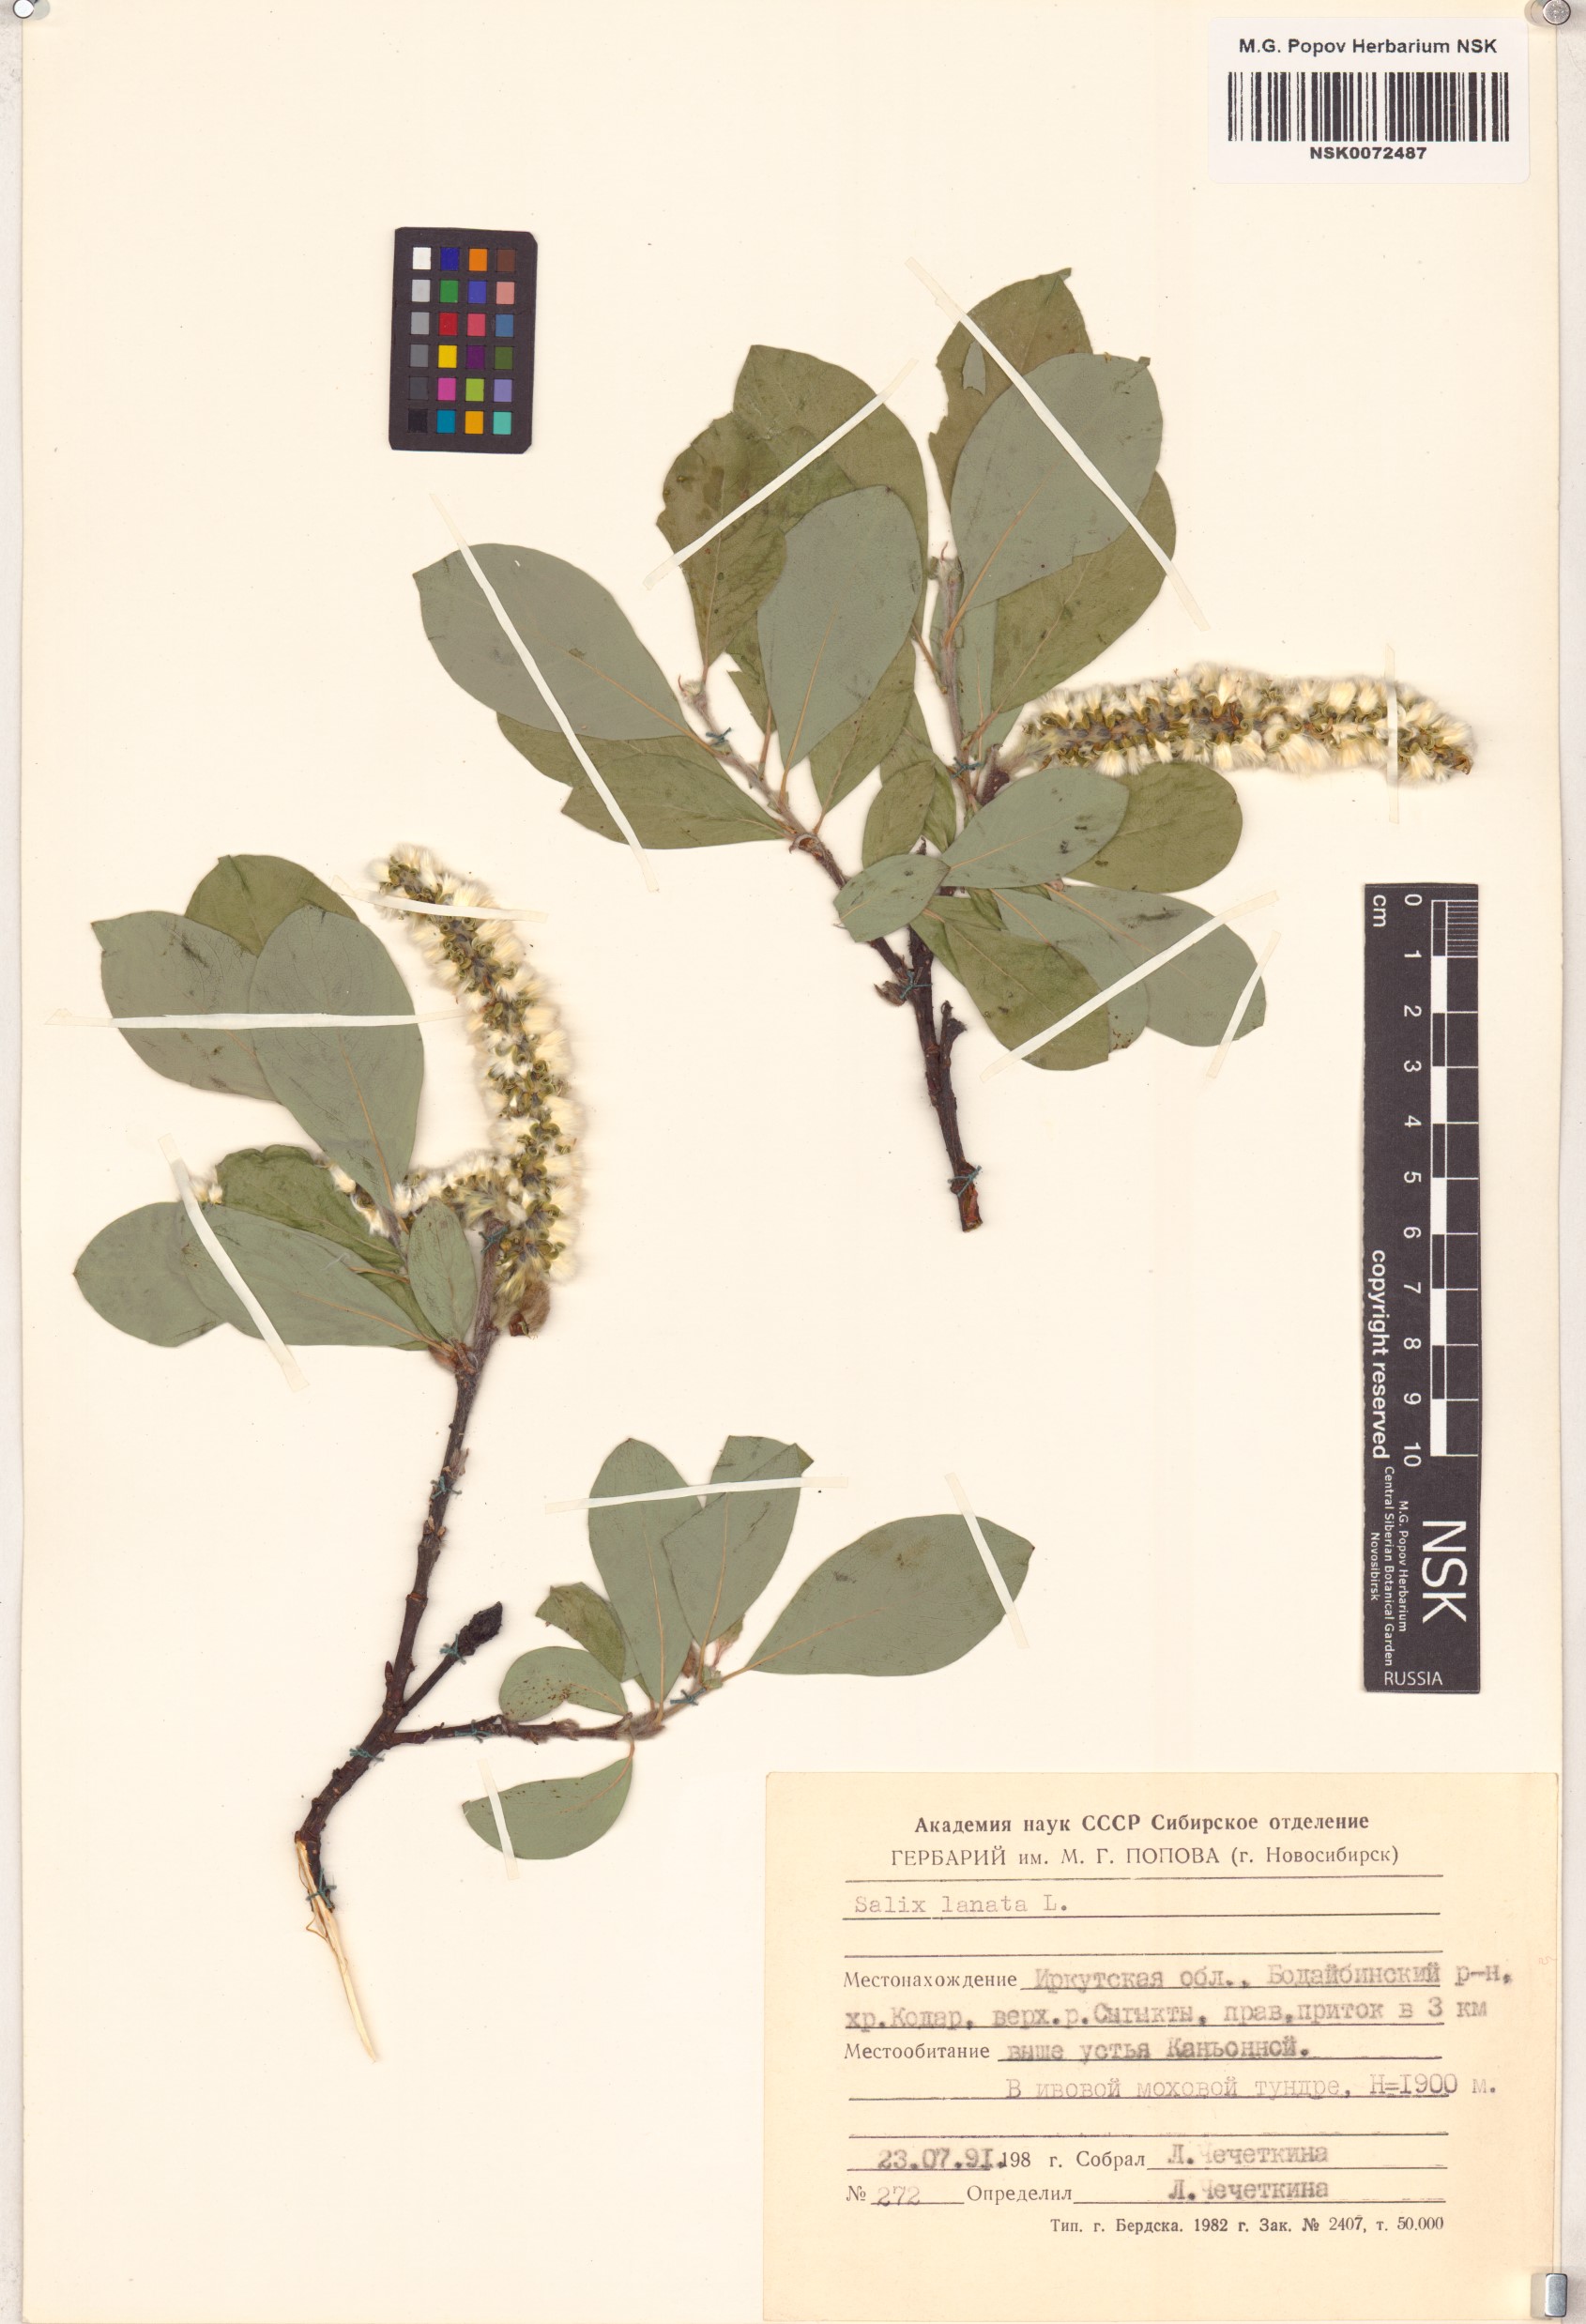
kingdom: Plantae
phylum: Tracheophyta
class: Magnoliopsida
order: Malpighiales
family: Salicaceae
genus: Salix
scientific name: Salix lanata
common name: Woolly willow
